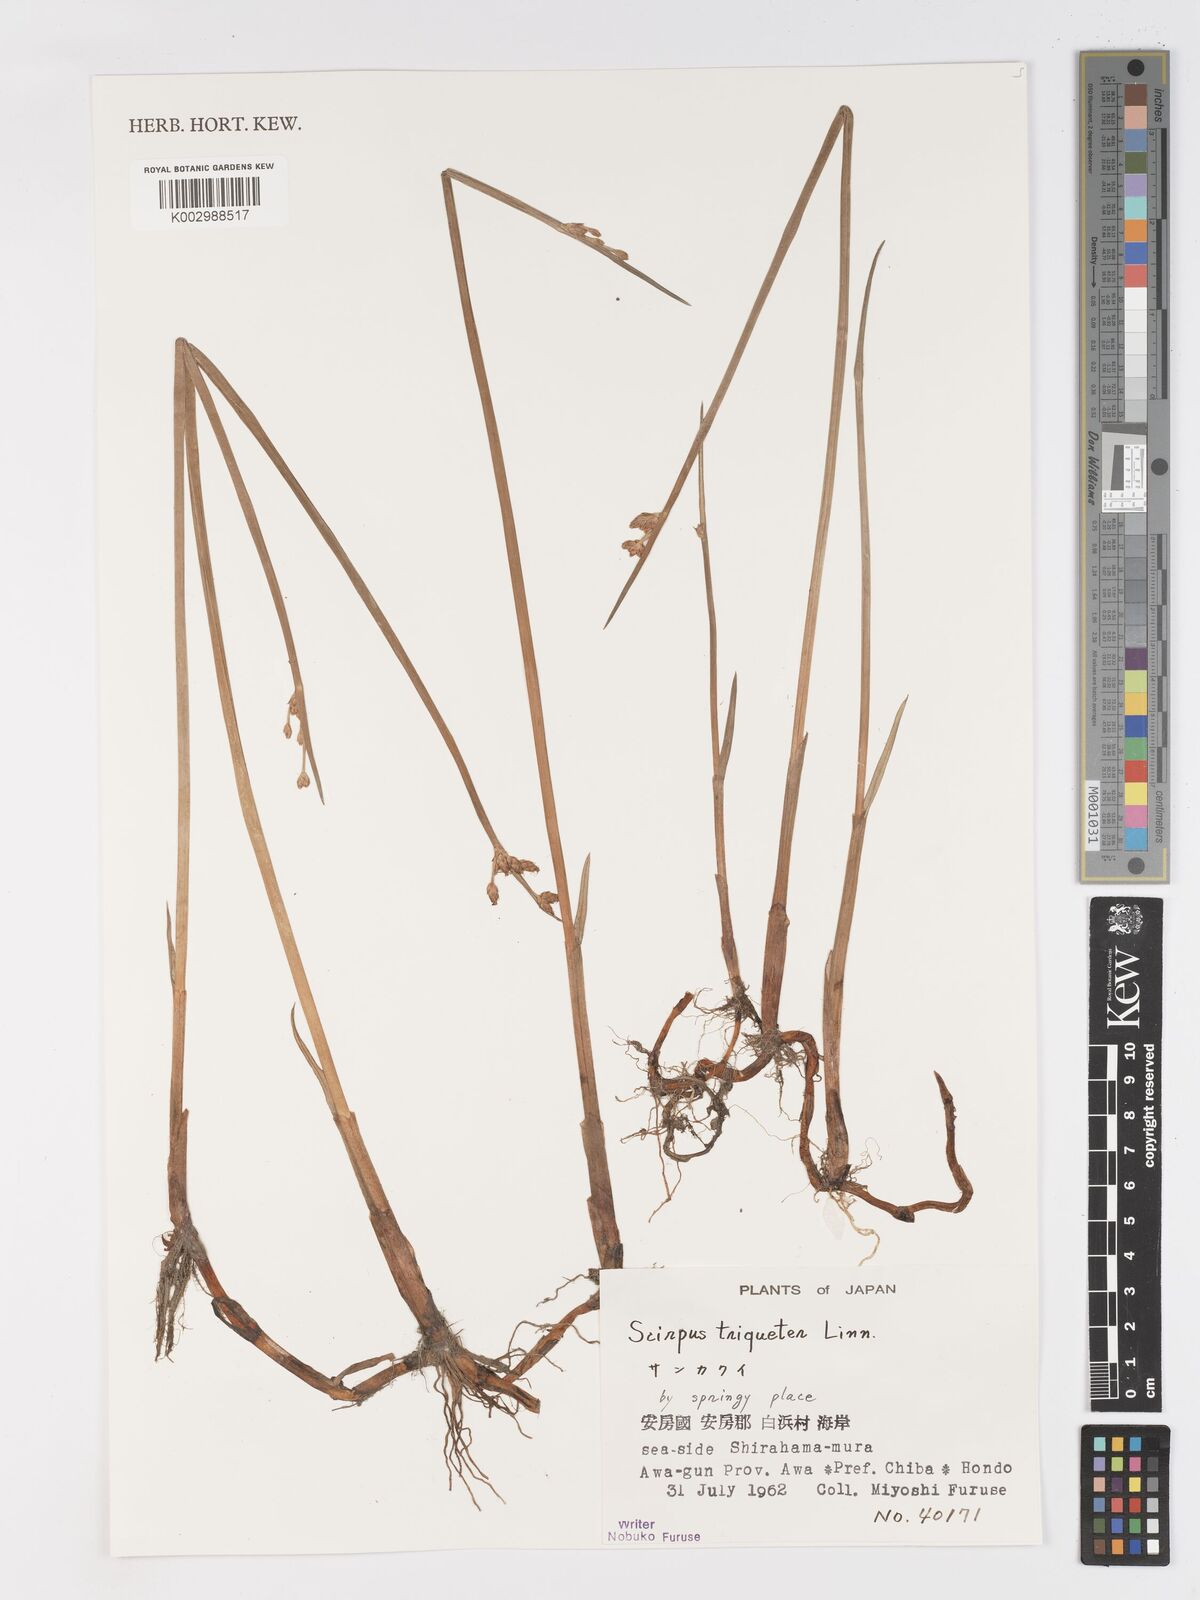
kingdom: Plantae
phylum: Tracheophyta
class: Liliopsida
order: Poales
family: Cyperaceae
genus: Schoenoplectus
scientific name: Schoenoplectus triqueter
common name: Triangular club-rush
